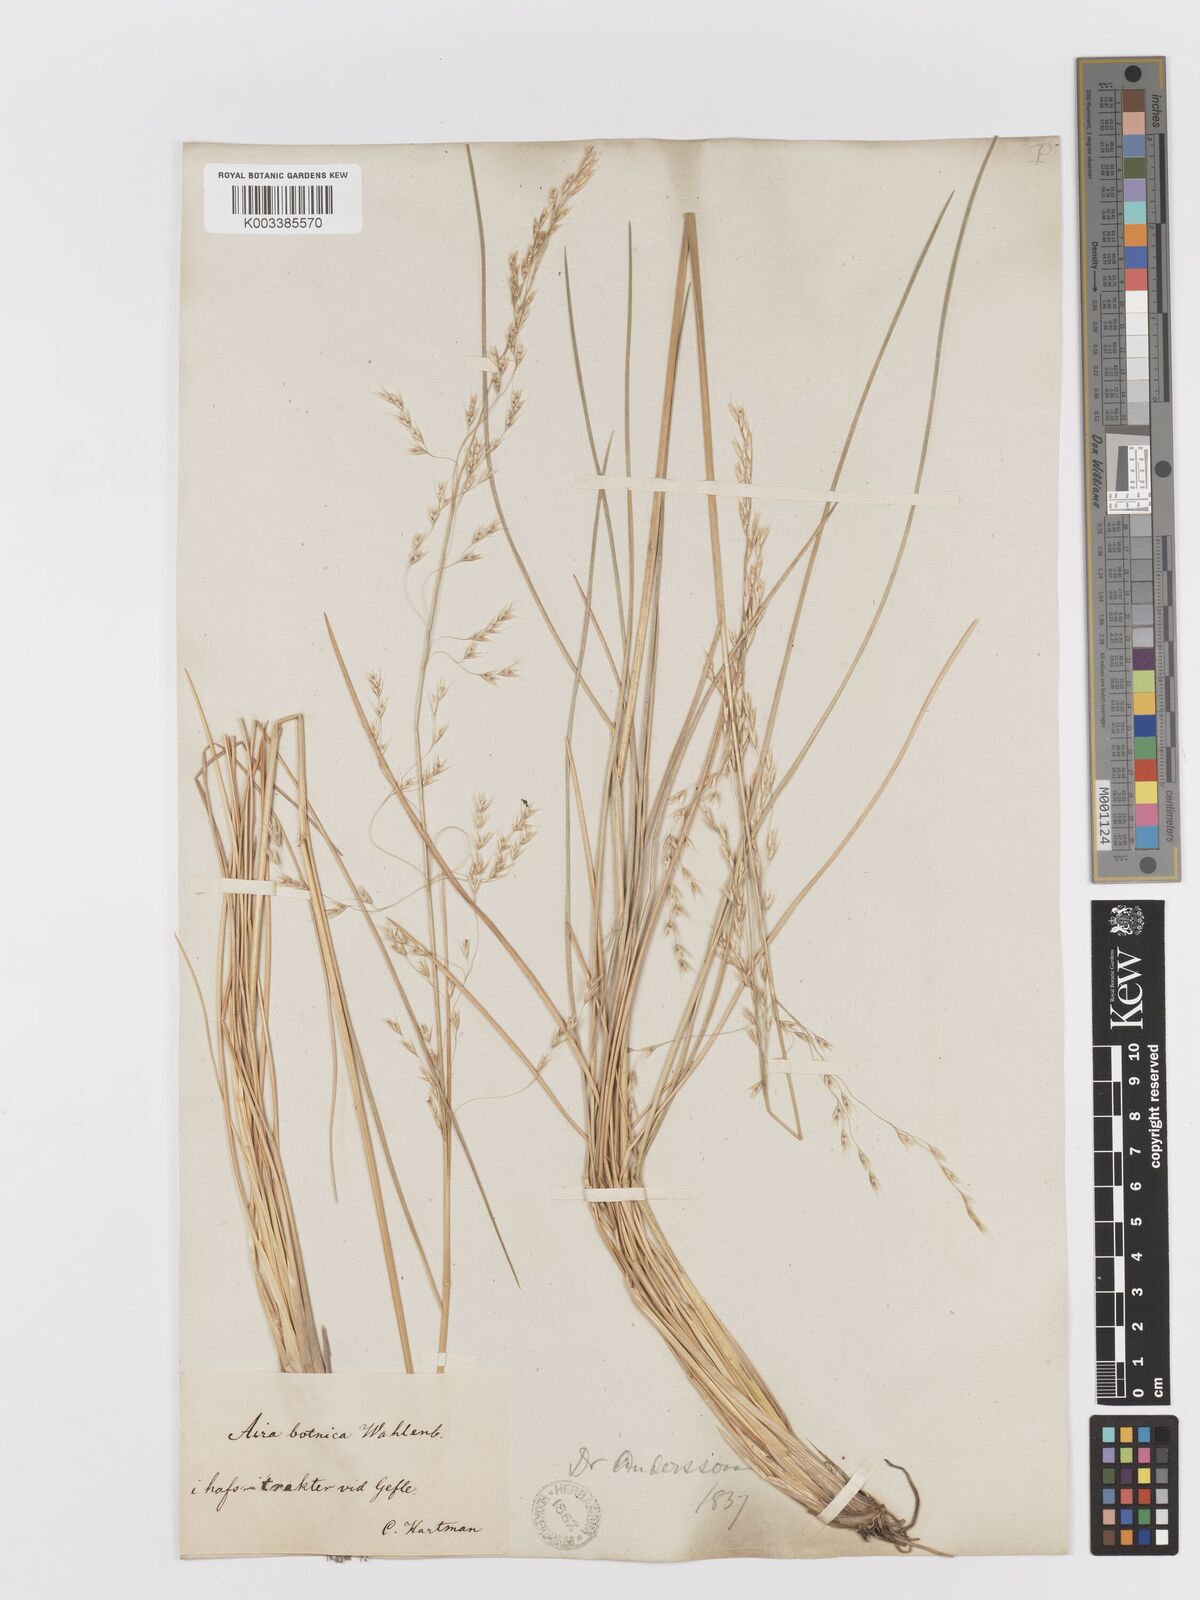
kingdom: Plantae
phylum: Tracheophyta
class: Liliopsida
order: Poales
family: Poaceae
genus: Deschampsia
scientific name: Deschampsia cespitosa
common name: Tufted hair-grass
